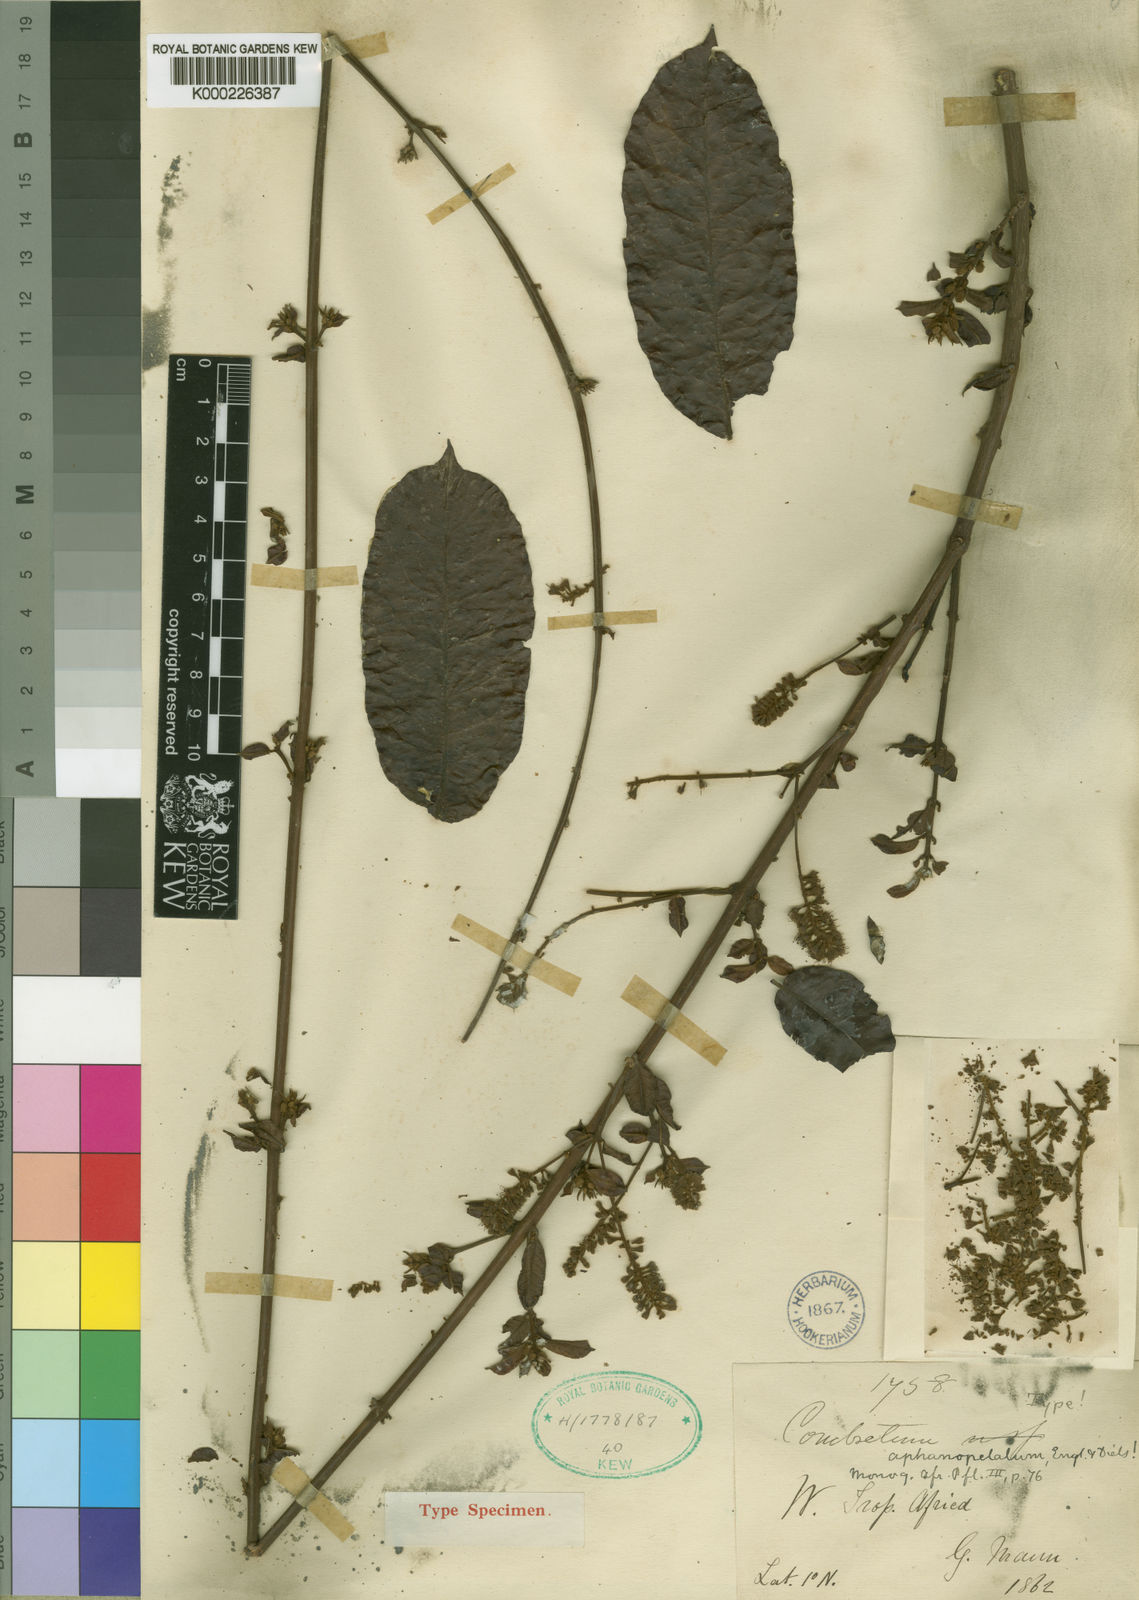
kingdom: Plantae
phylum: Tracheophyta
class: Magnoliopsida
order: Myrtales
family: Combretaceae
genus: Combretum
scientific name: Combretum aphanopetalum
